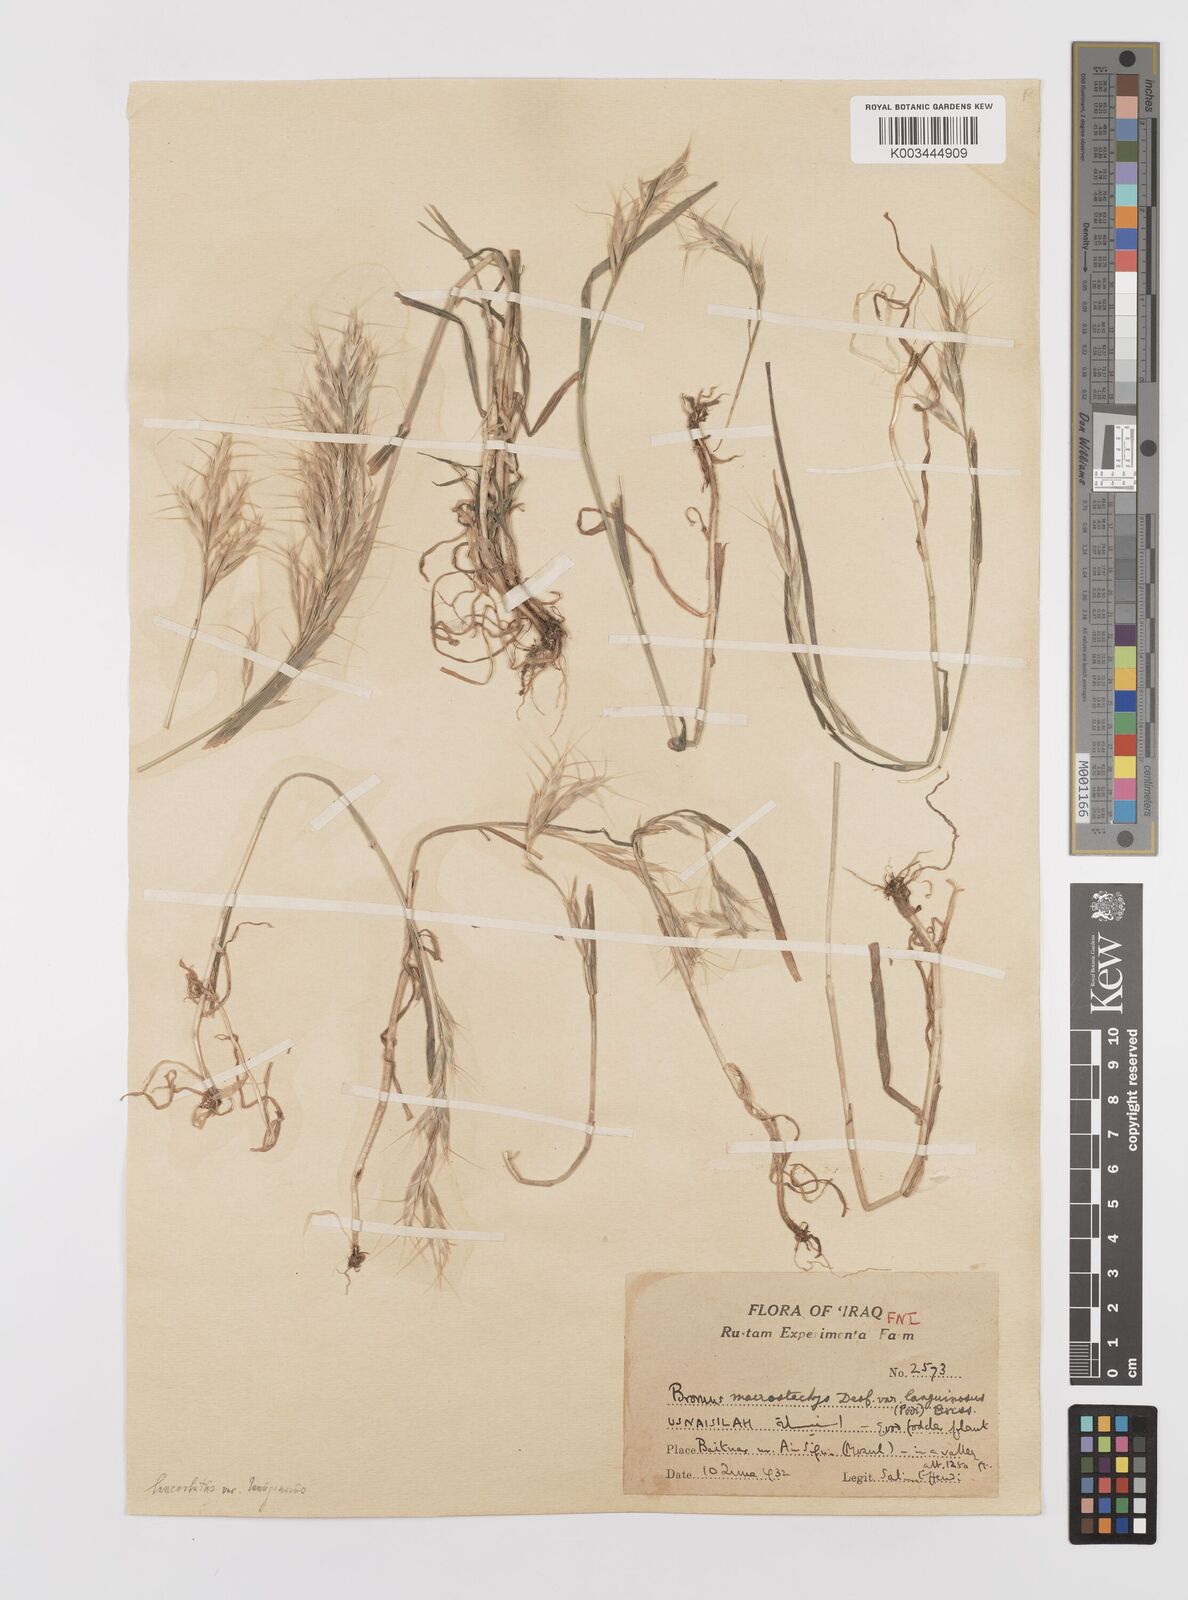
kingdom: Plantae
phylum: Tracheophyta
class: Liliopsida
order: Poales
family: Poaceae
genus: Bromus
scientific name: Bromus lanceolatus
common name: Mediterranean brome
